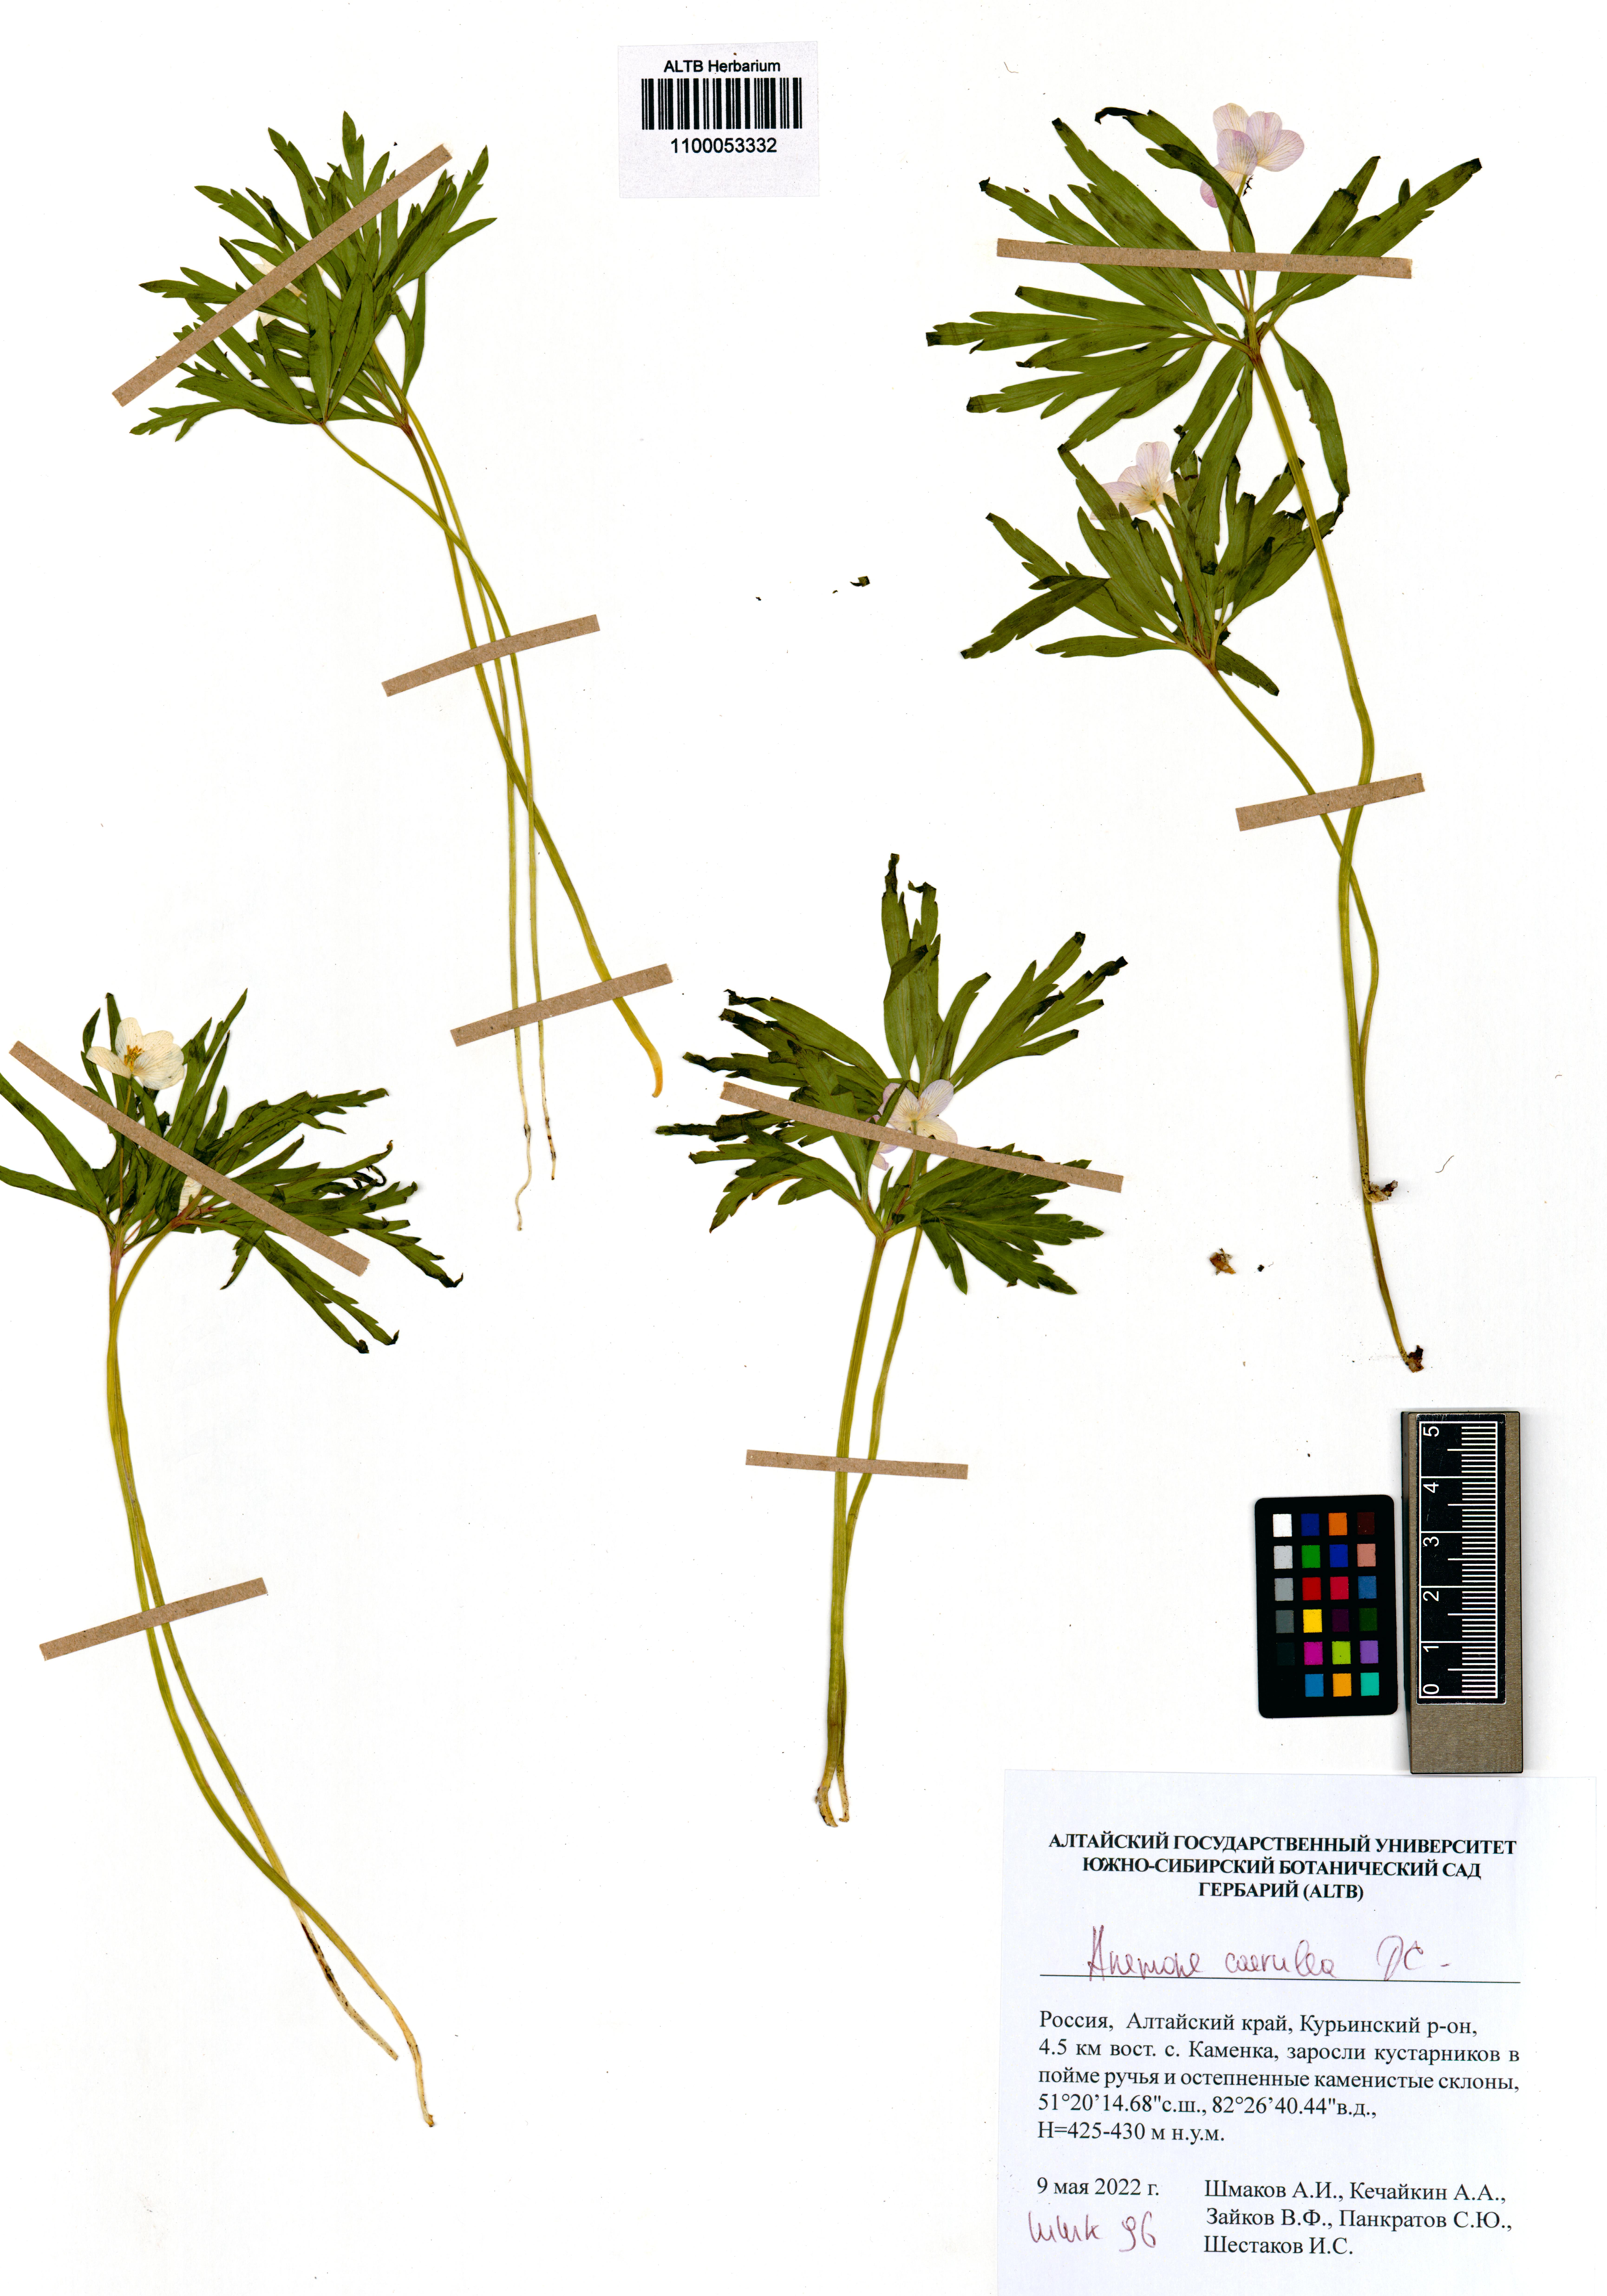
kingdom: Plantae
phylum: Tracheophyta
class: Magnoliopsida
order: Ranunculales
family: Ranunculaceae
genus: Anemone
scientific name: Anemone caerulea
